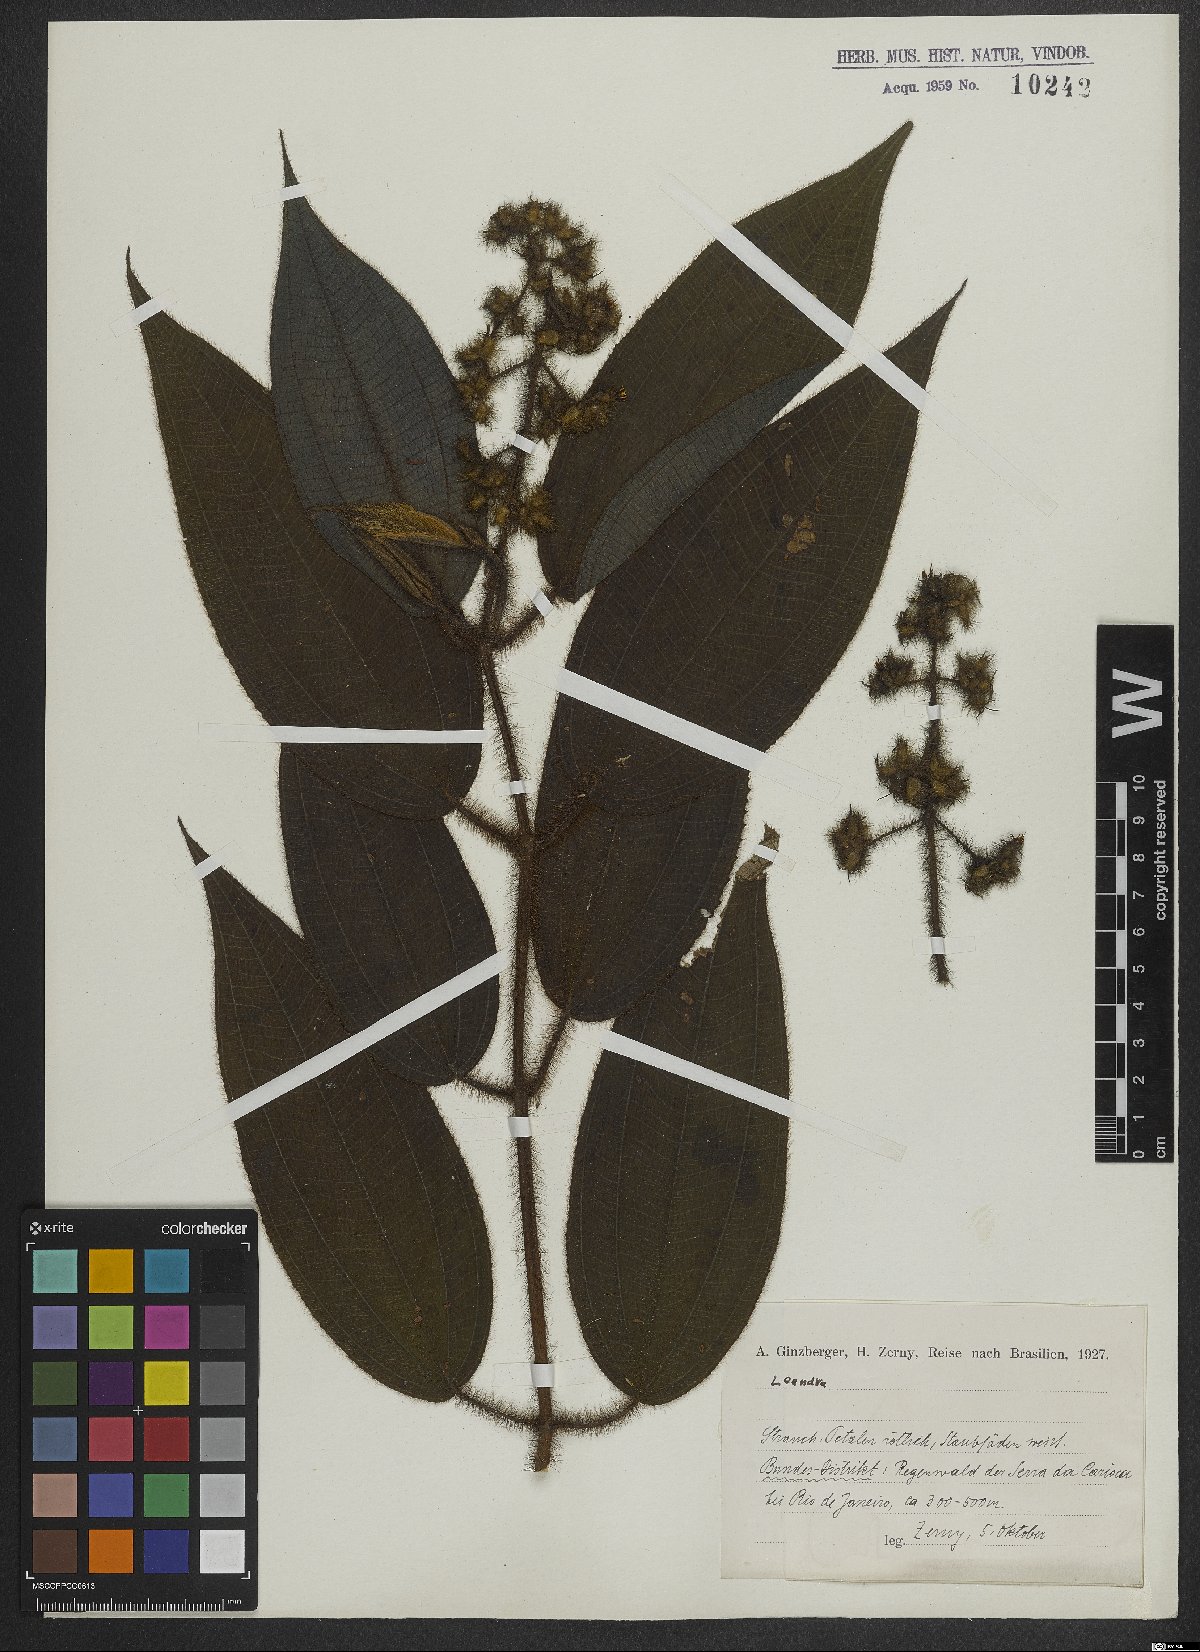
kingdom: Plantae
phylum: Tracheophyta
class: Magnoliopsida
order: Myrtales
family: Melastomataceae
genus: Miconia
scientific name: Miconia
